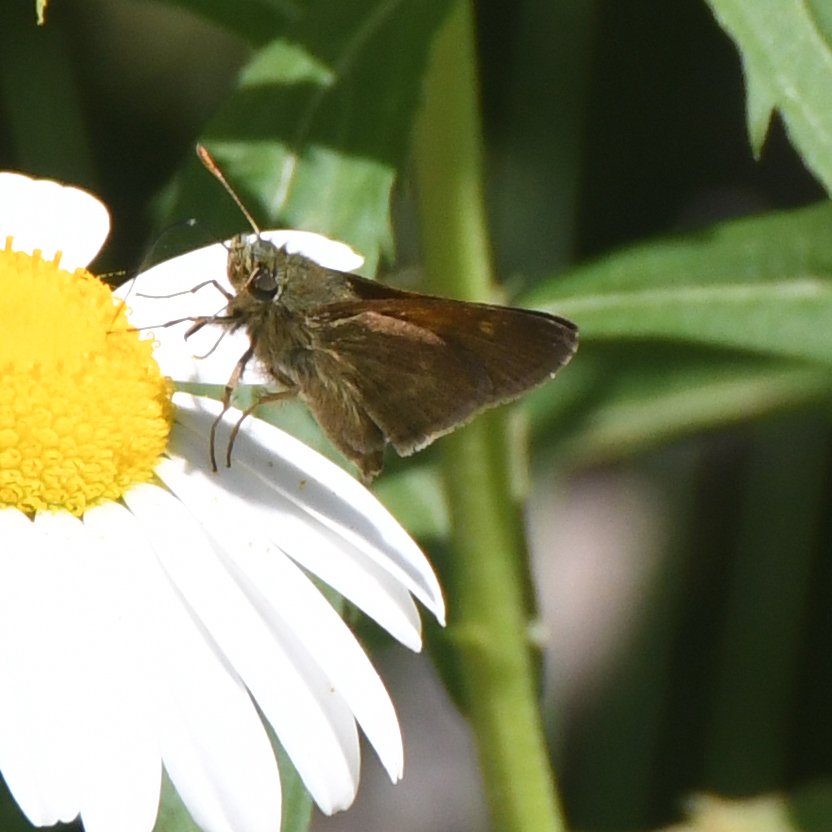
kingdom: Animalia
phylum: Arthropoda
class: Insecta
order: Lepidoptera
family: Hesperiidae
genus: Polites
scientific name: Polites themistocles
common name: Tawny-edged Skipper
